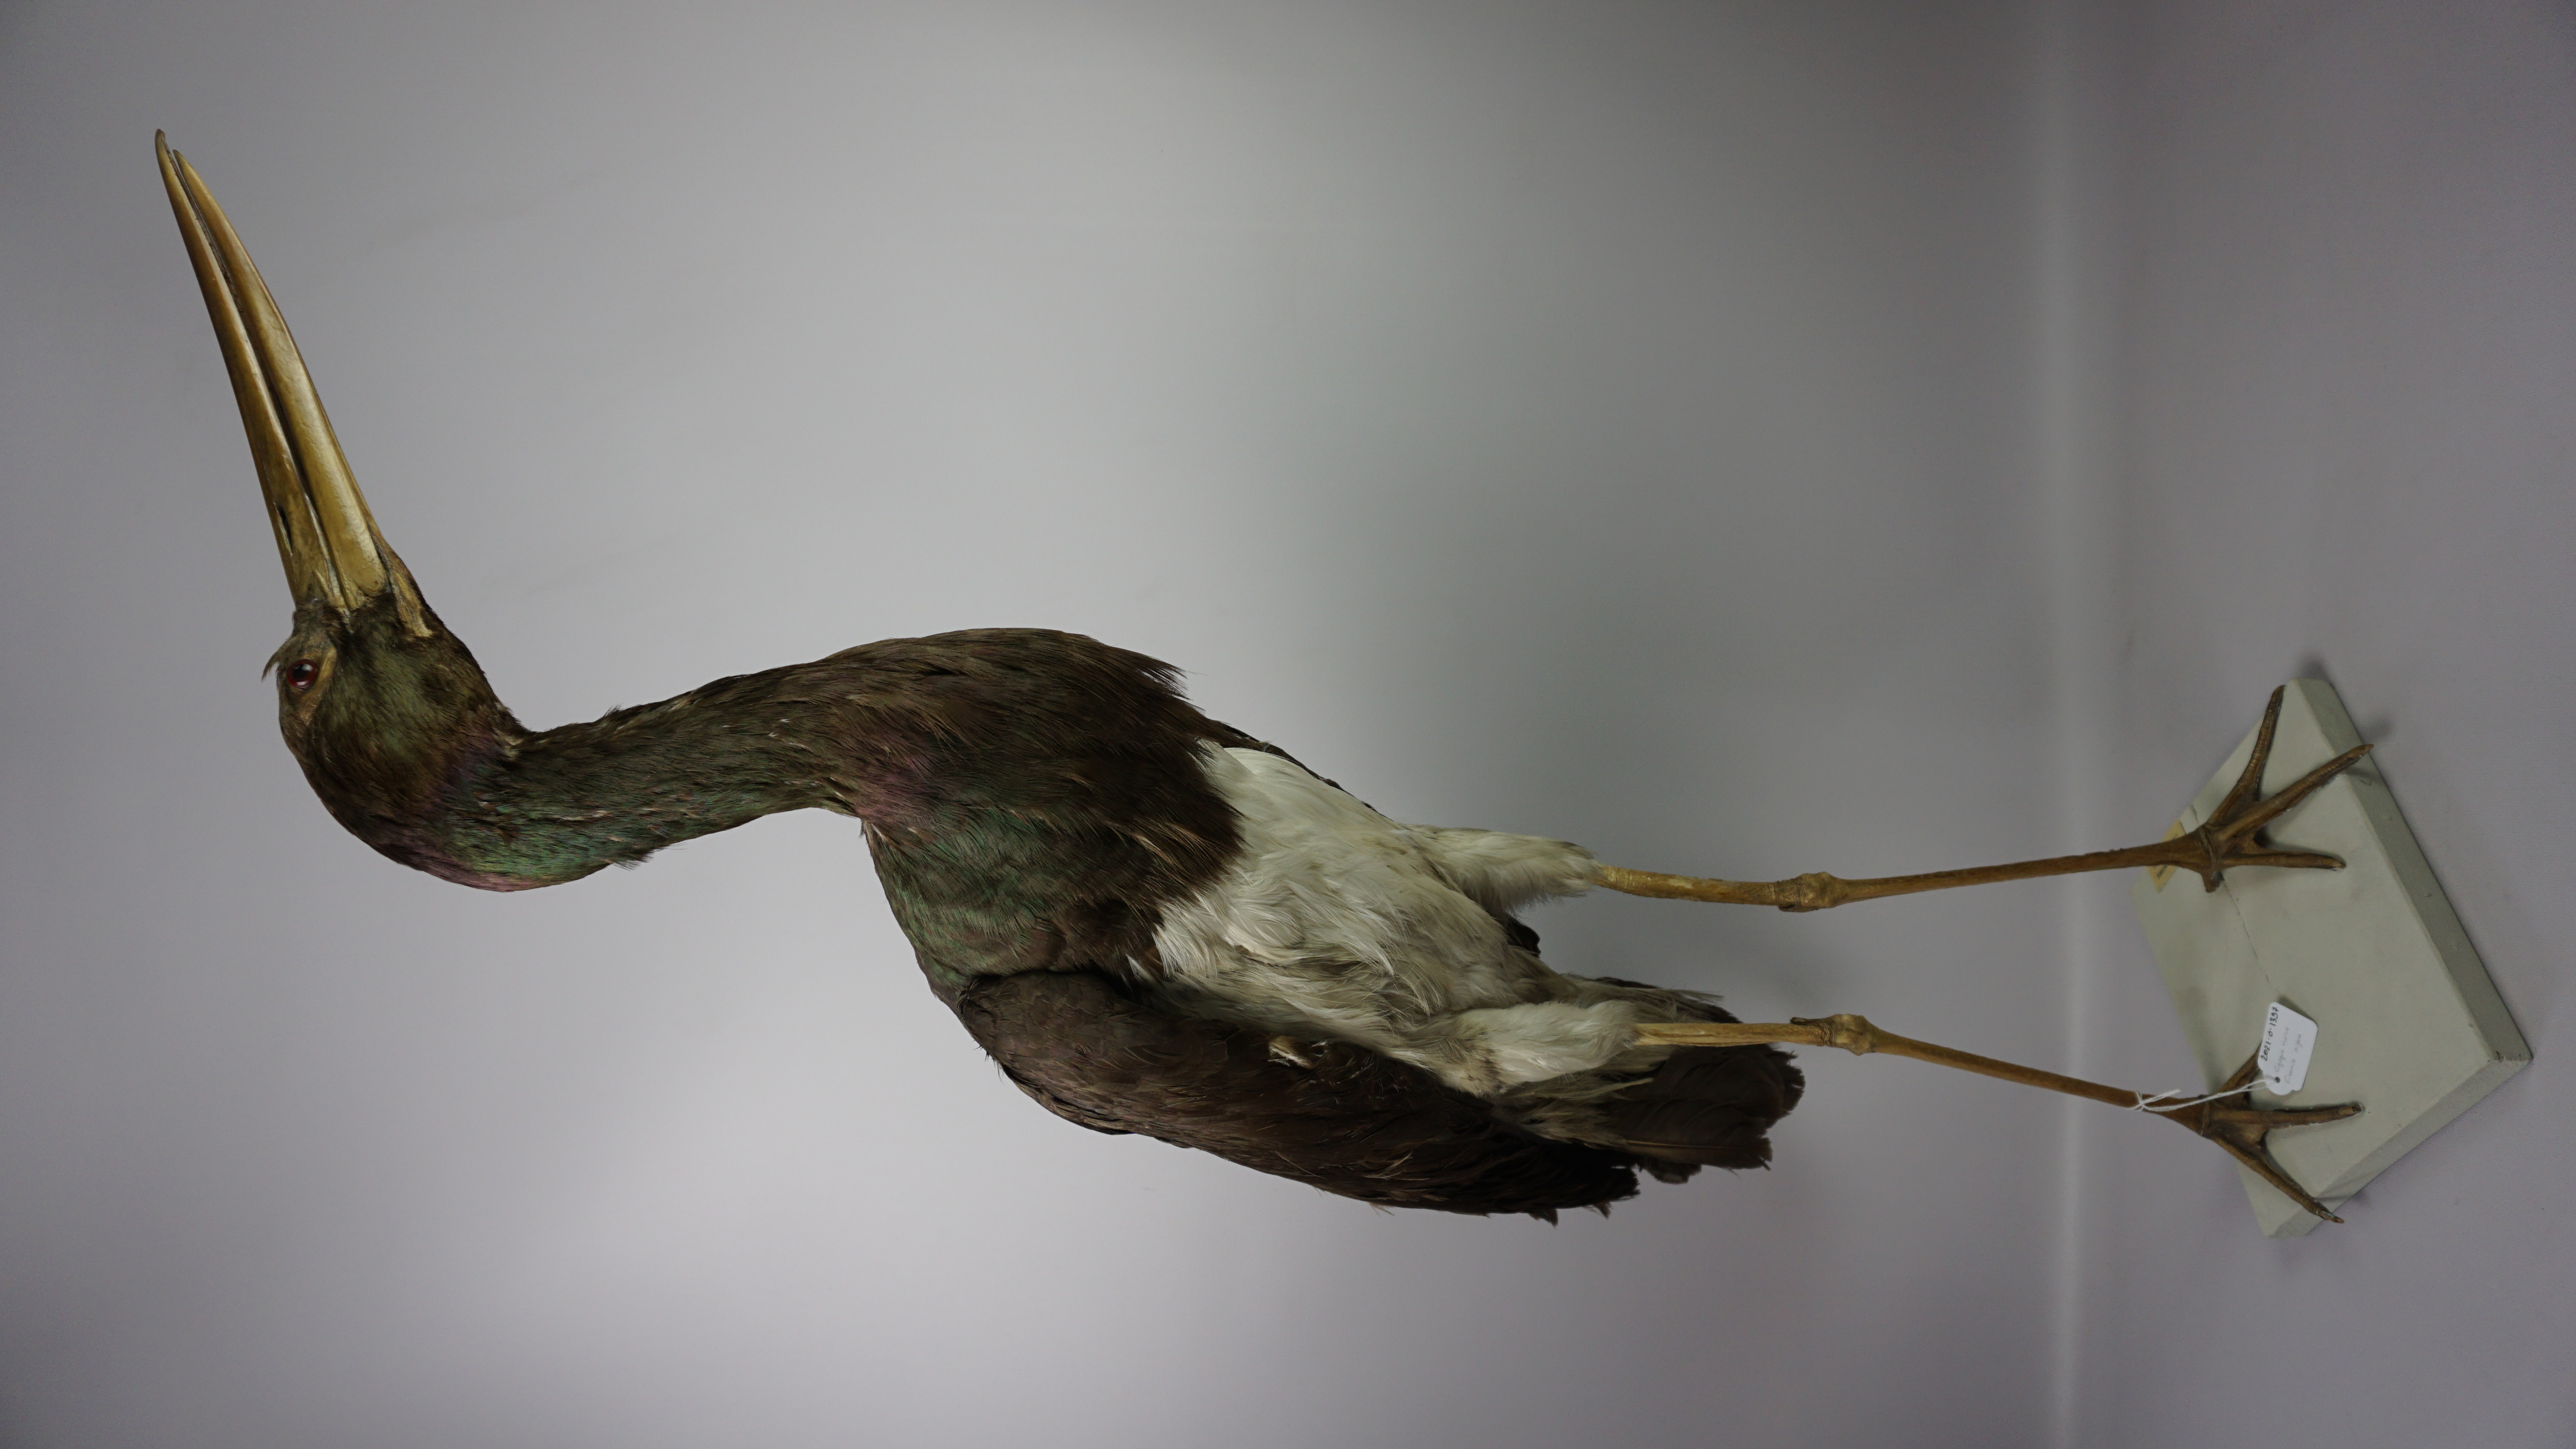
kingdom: Animalia
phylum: Chordata
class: Aves
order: Ciconiiformes
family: Ciconiidae
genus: Ciconia
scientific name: Ciconia nigra
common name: Black stork
